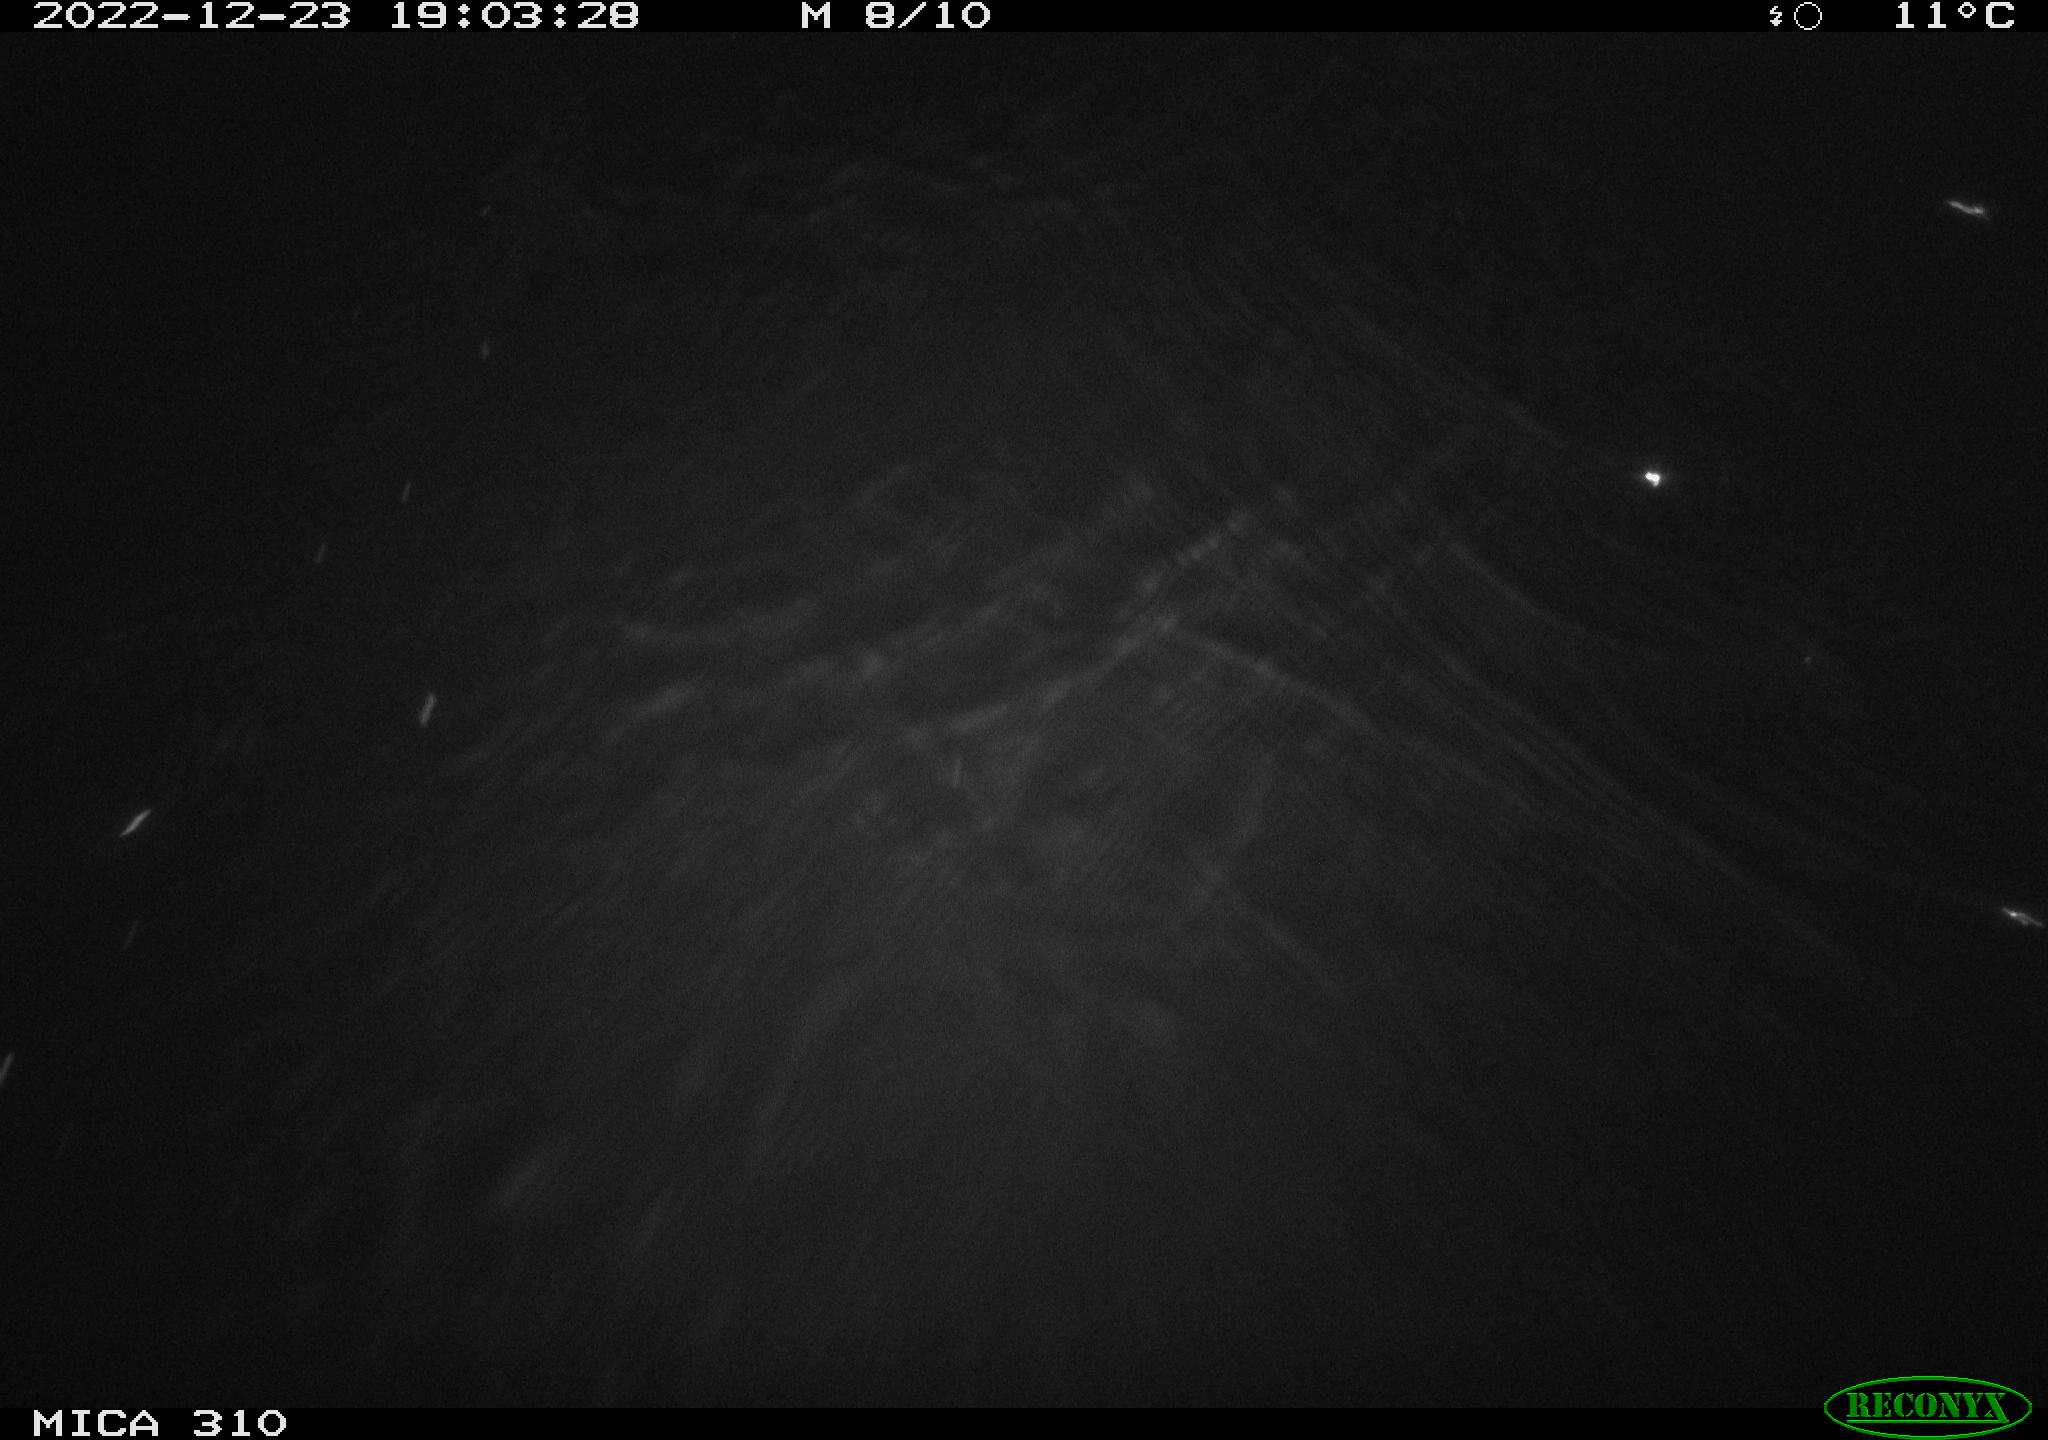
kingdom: Animalia
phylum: Chordata
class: Mammalia
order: Rodentia
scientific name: Rodentia
